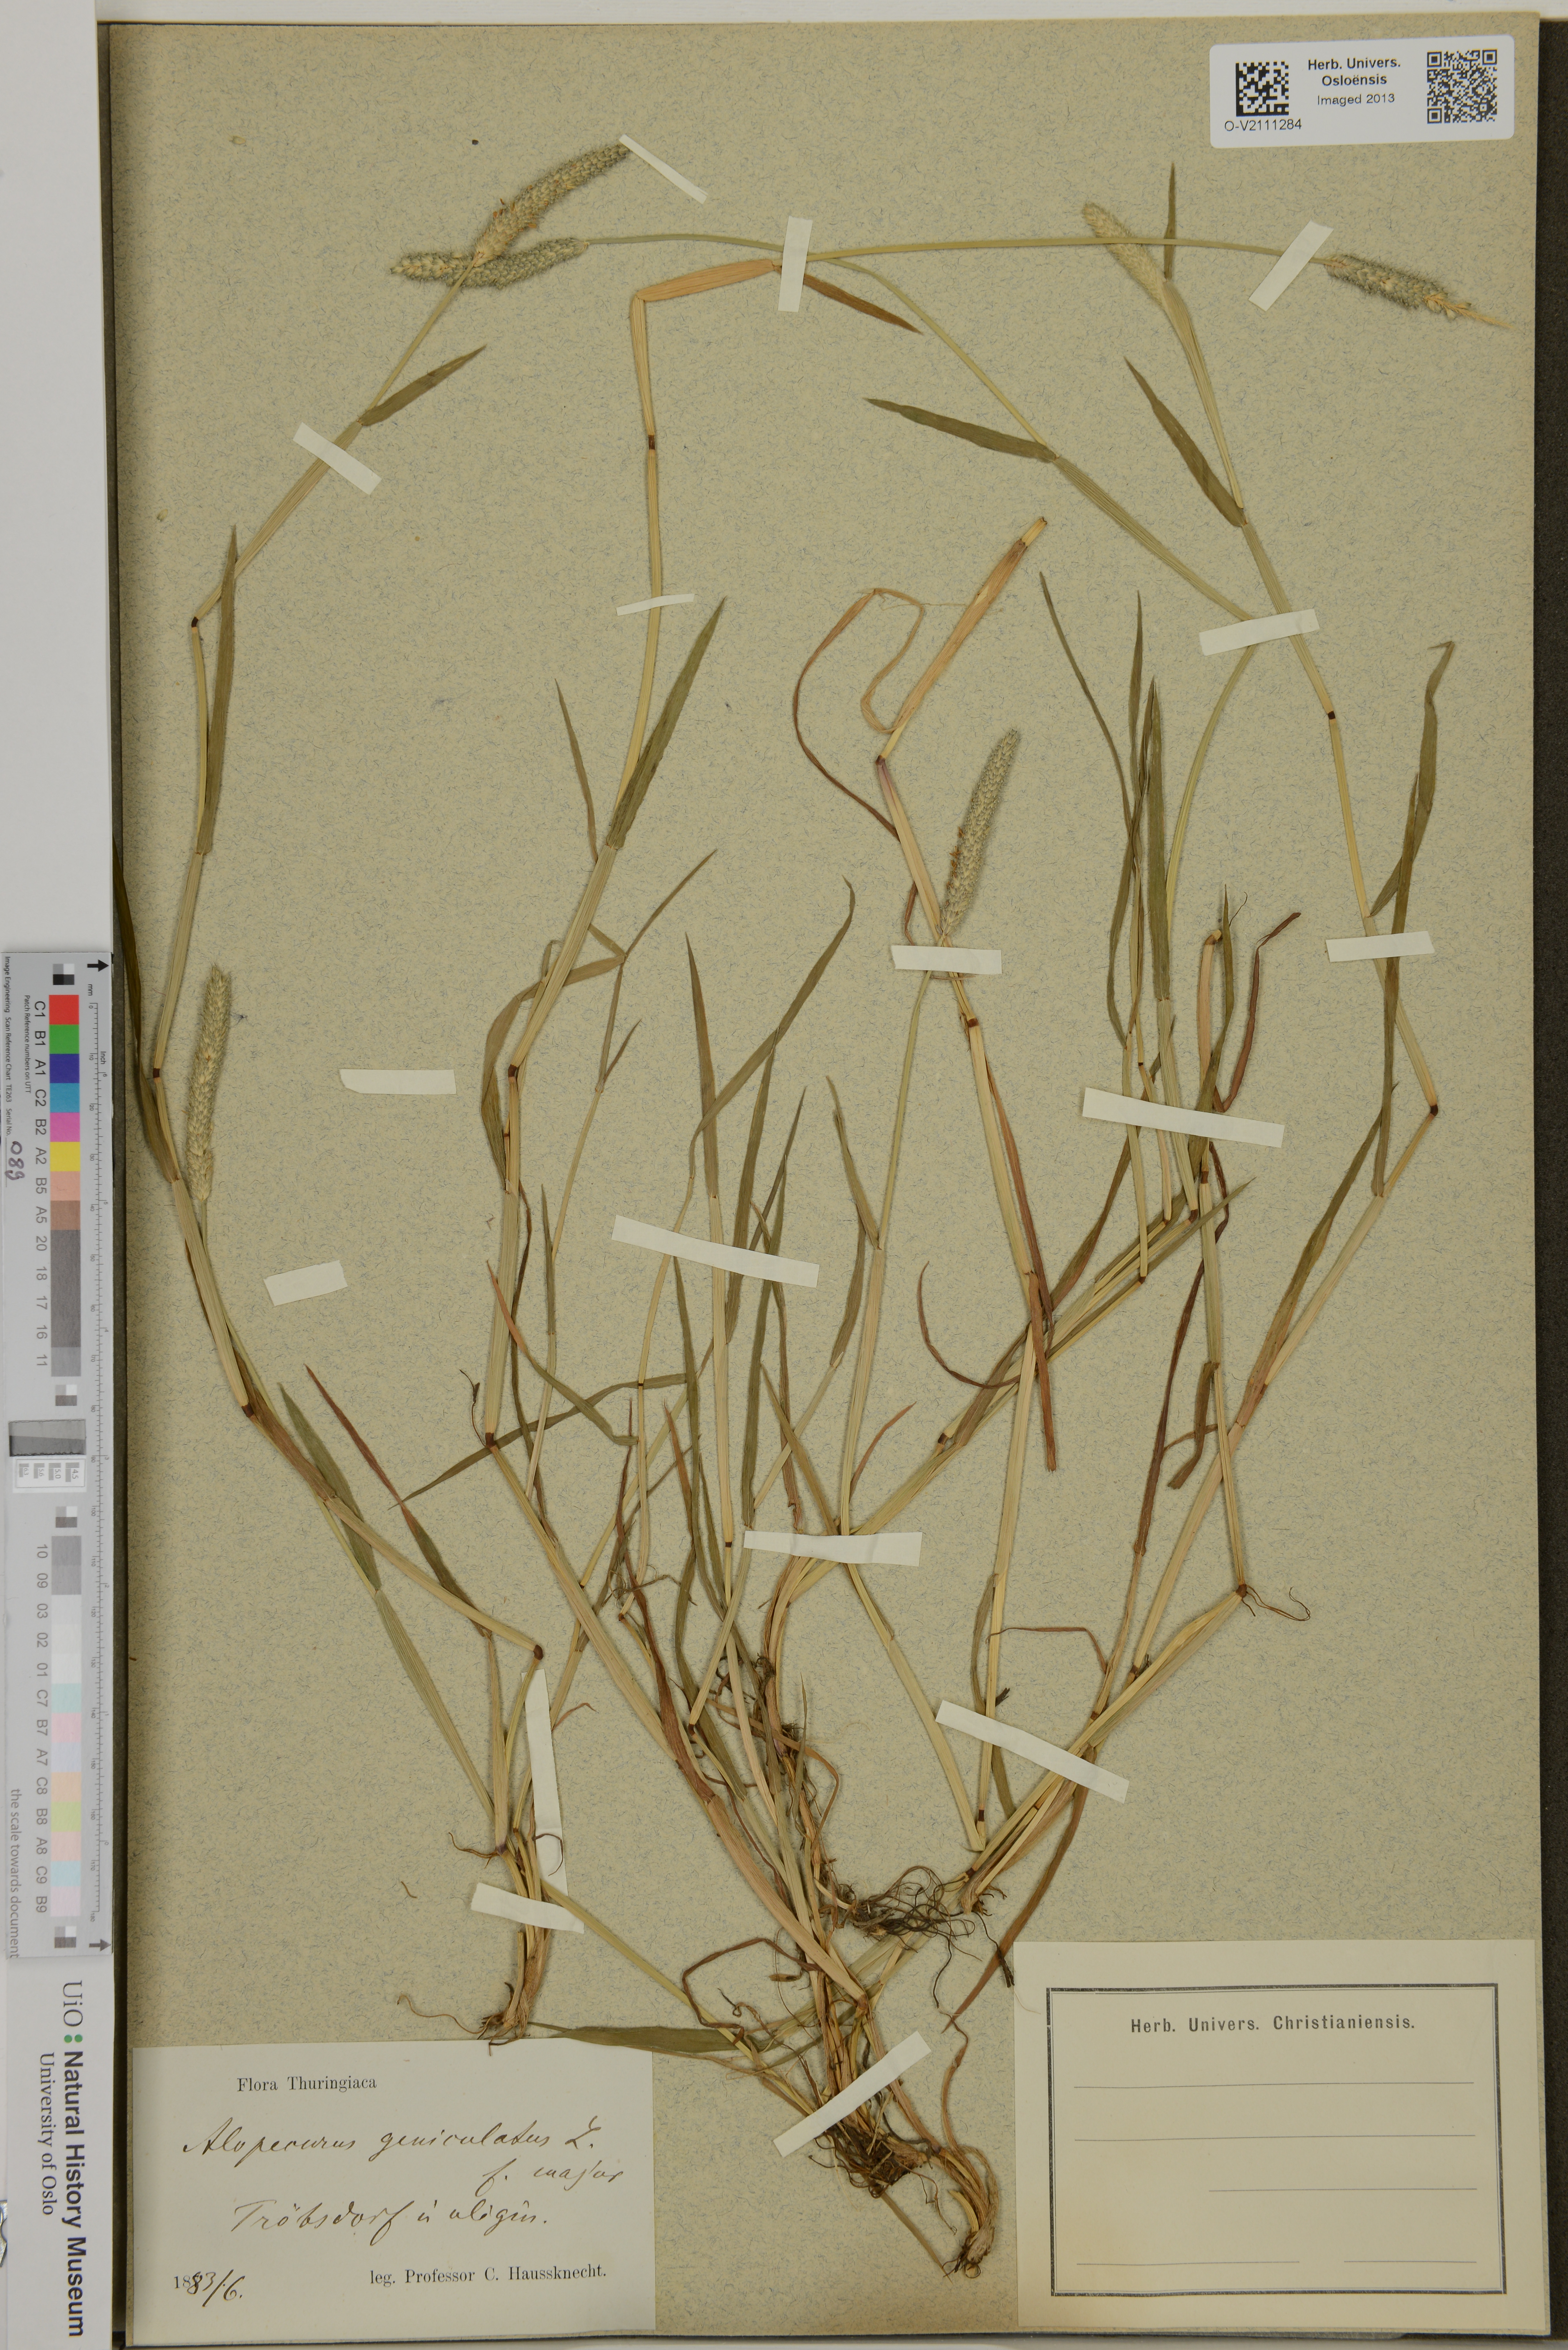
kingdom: Plantae
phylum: Tracheophyta
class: Liliopsida
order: Poales
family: Poaceae
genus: Alopecurus
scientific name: Alopecurus geniculatus
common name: Water foxtail
